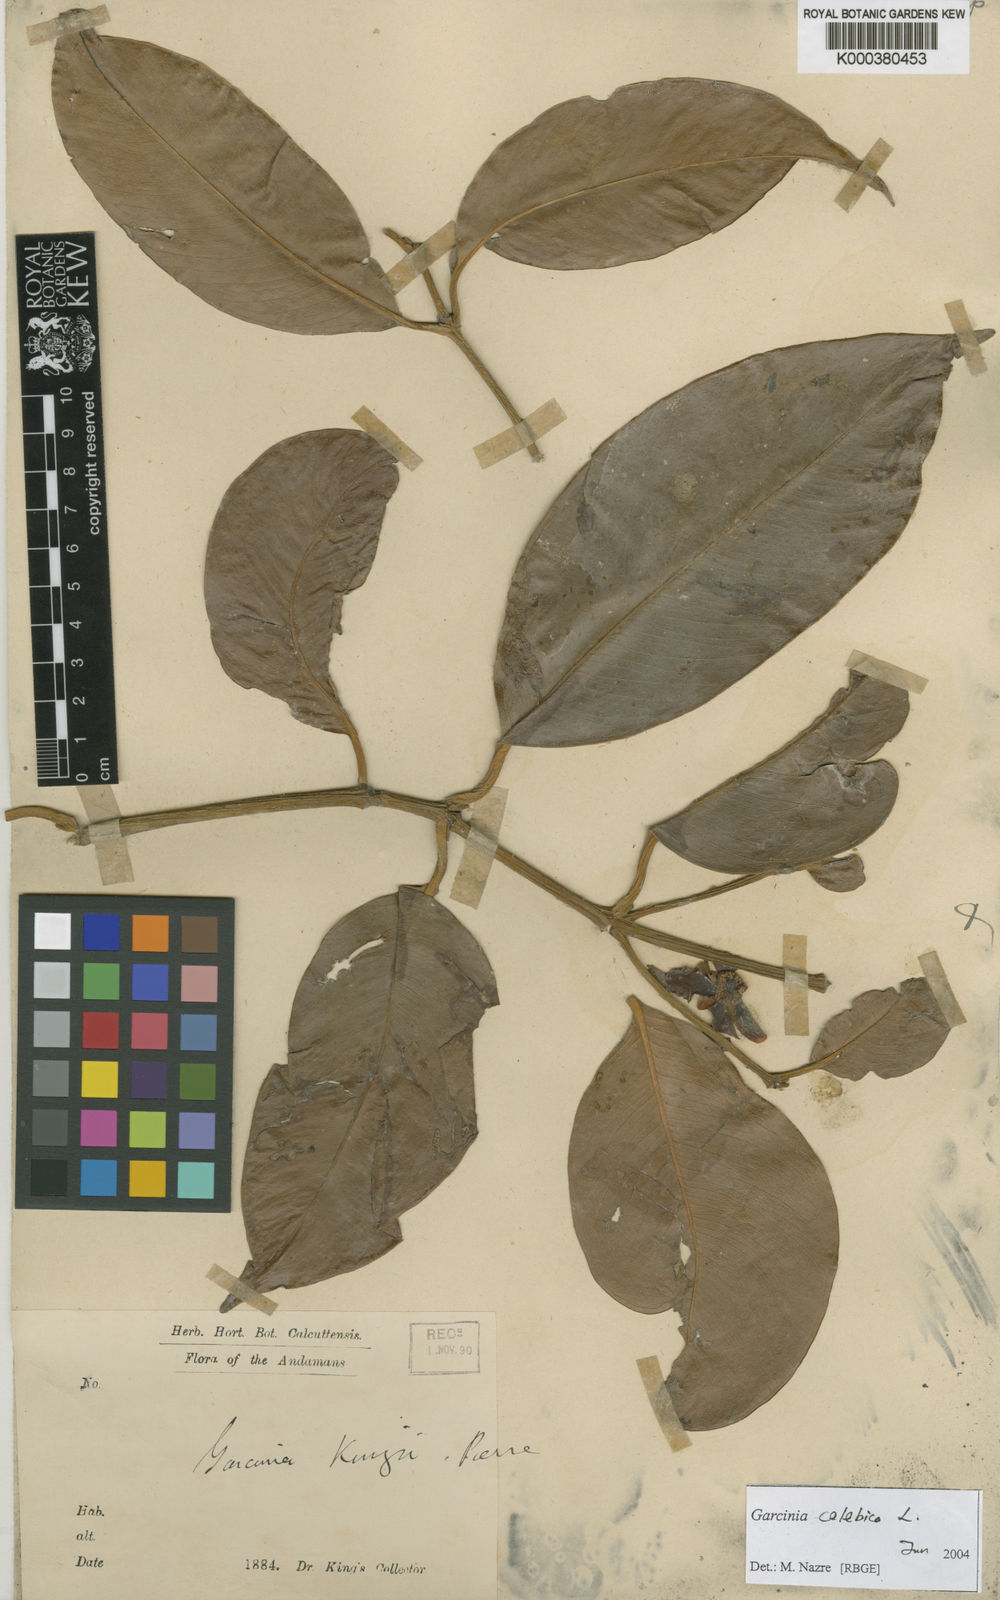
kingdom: Plantae
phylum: Tracheophyta
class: Magnoliopsida
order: Malpighiales
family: Clusiaceae
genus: Garcinia
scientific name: Garcinia celebica
